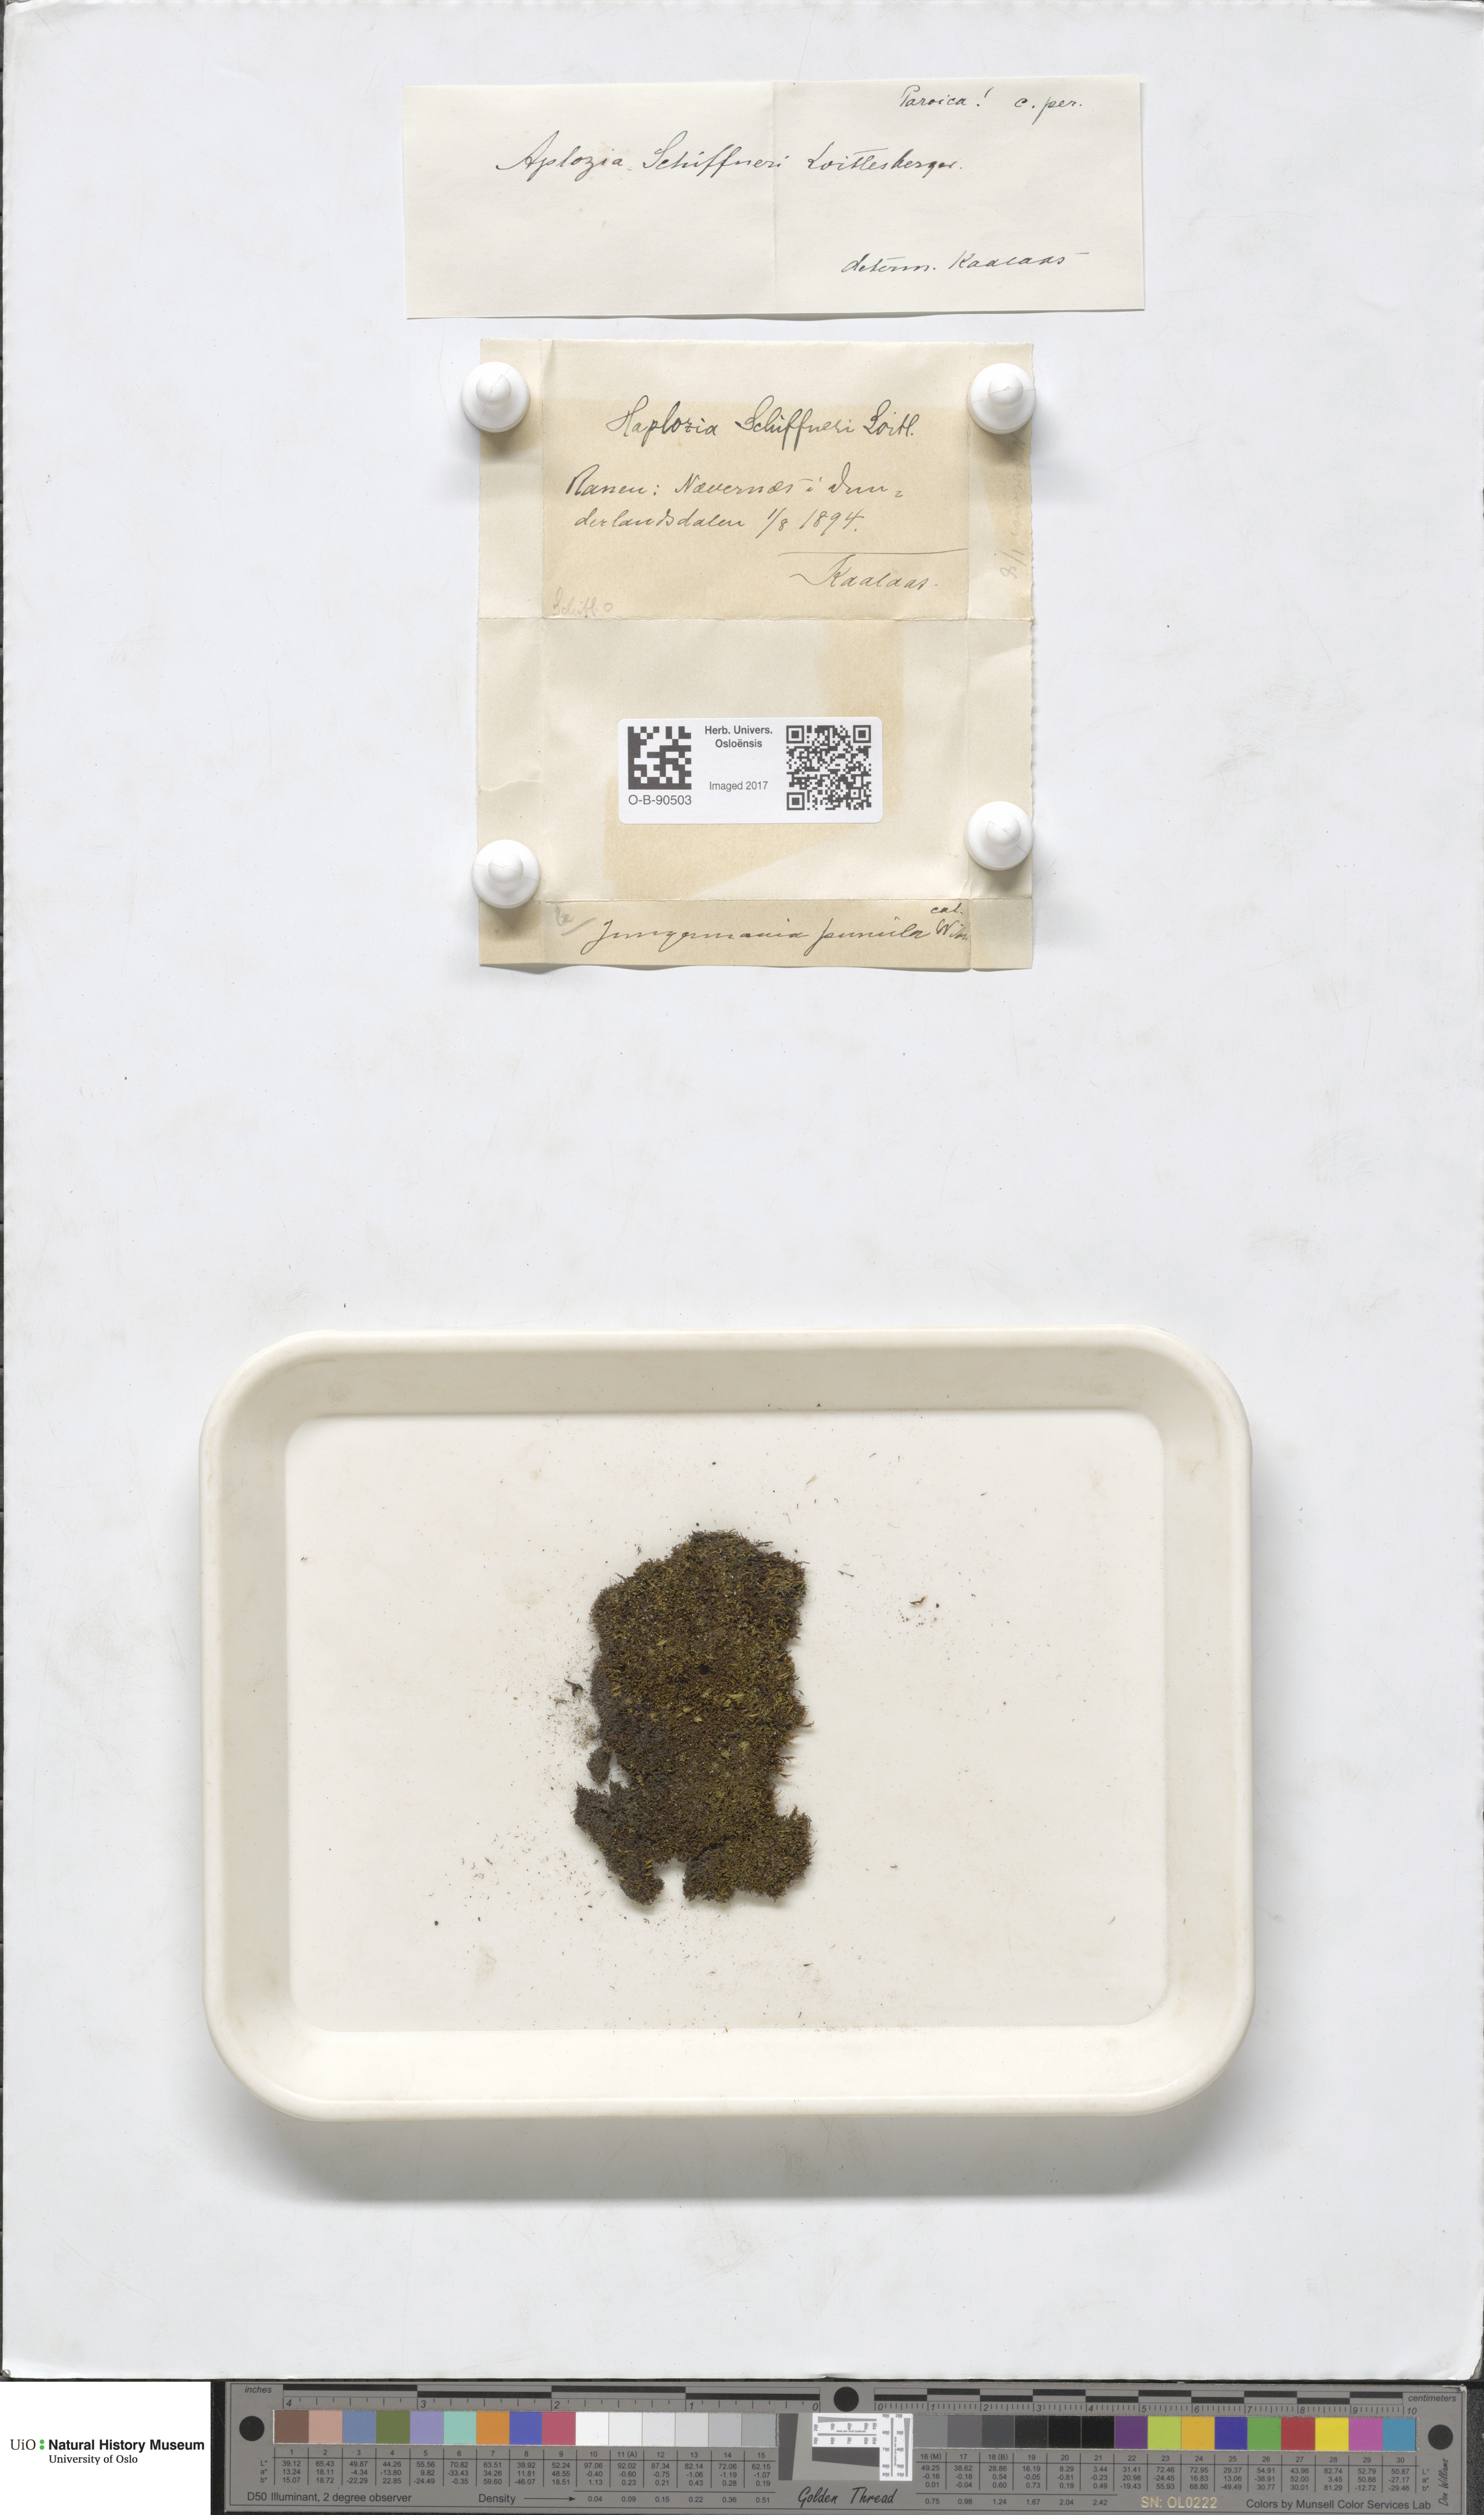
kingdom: Plantae
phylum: Marchantiophyta
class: Jungermanniopsida
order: Jungermanniales
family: Jungermanniaceae
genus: Jungermannia
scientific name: Jungermannia polaris
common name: Arctic flapwort
